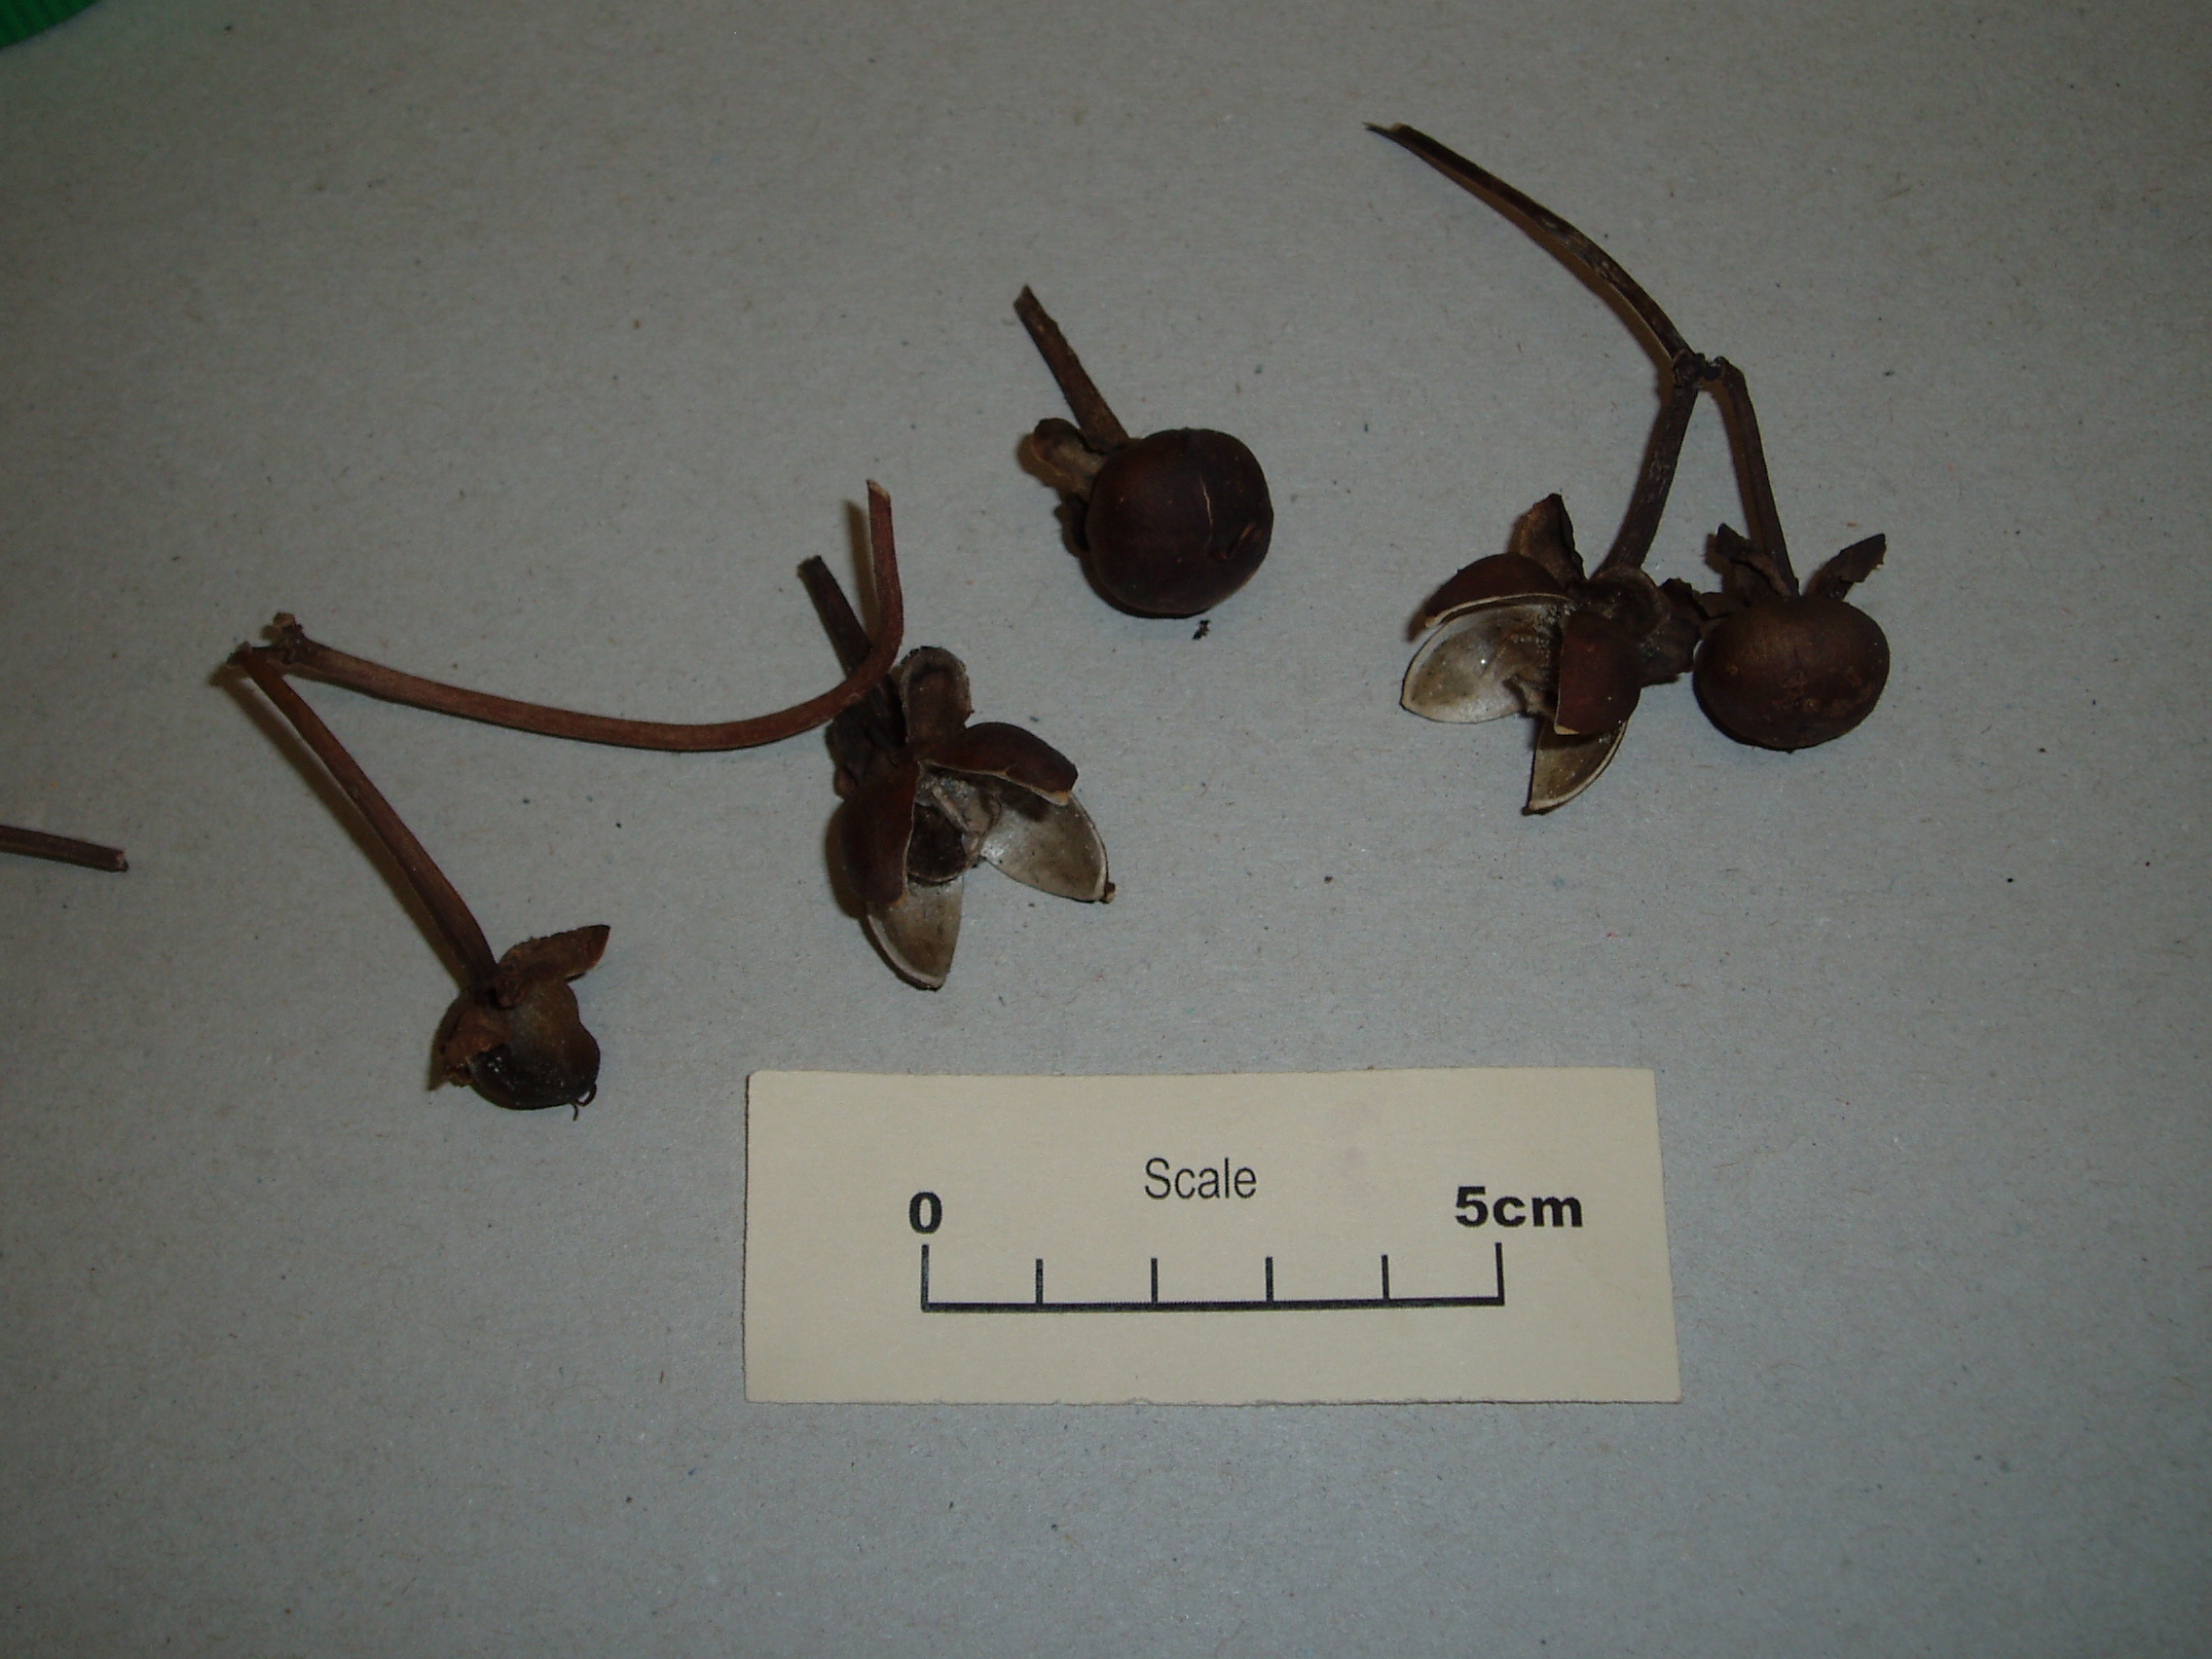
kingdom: Plantae
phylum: Tracheophyta
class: Magnoliopsida
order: Solanales
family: Convolvulaceae
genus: Ipomoea
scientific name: Ipomoea pes-caprae
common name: Beach morning glory
